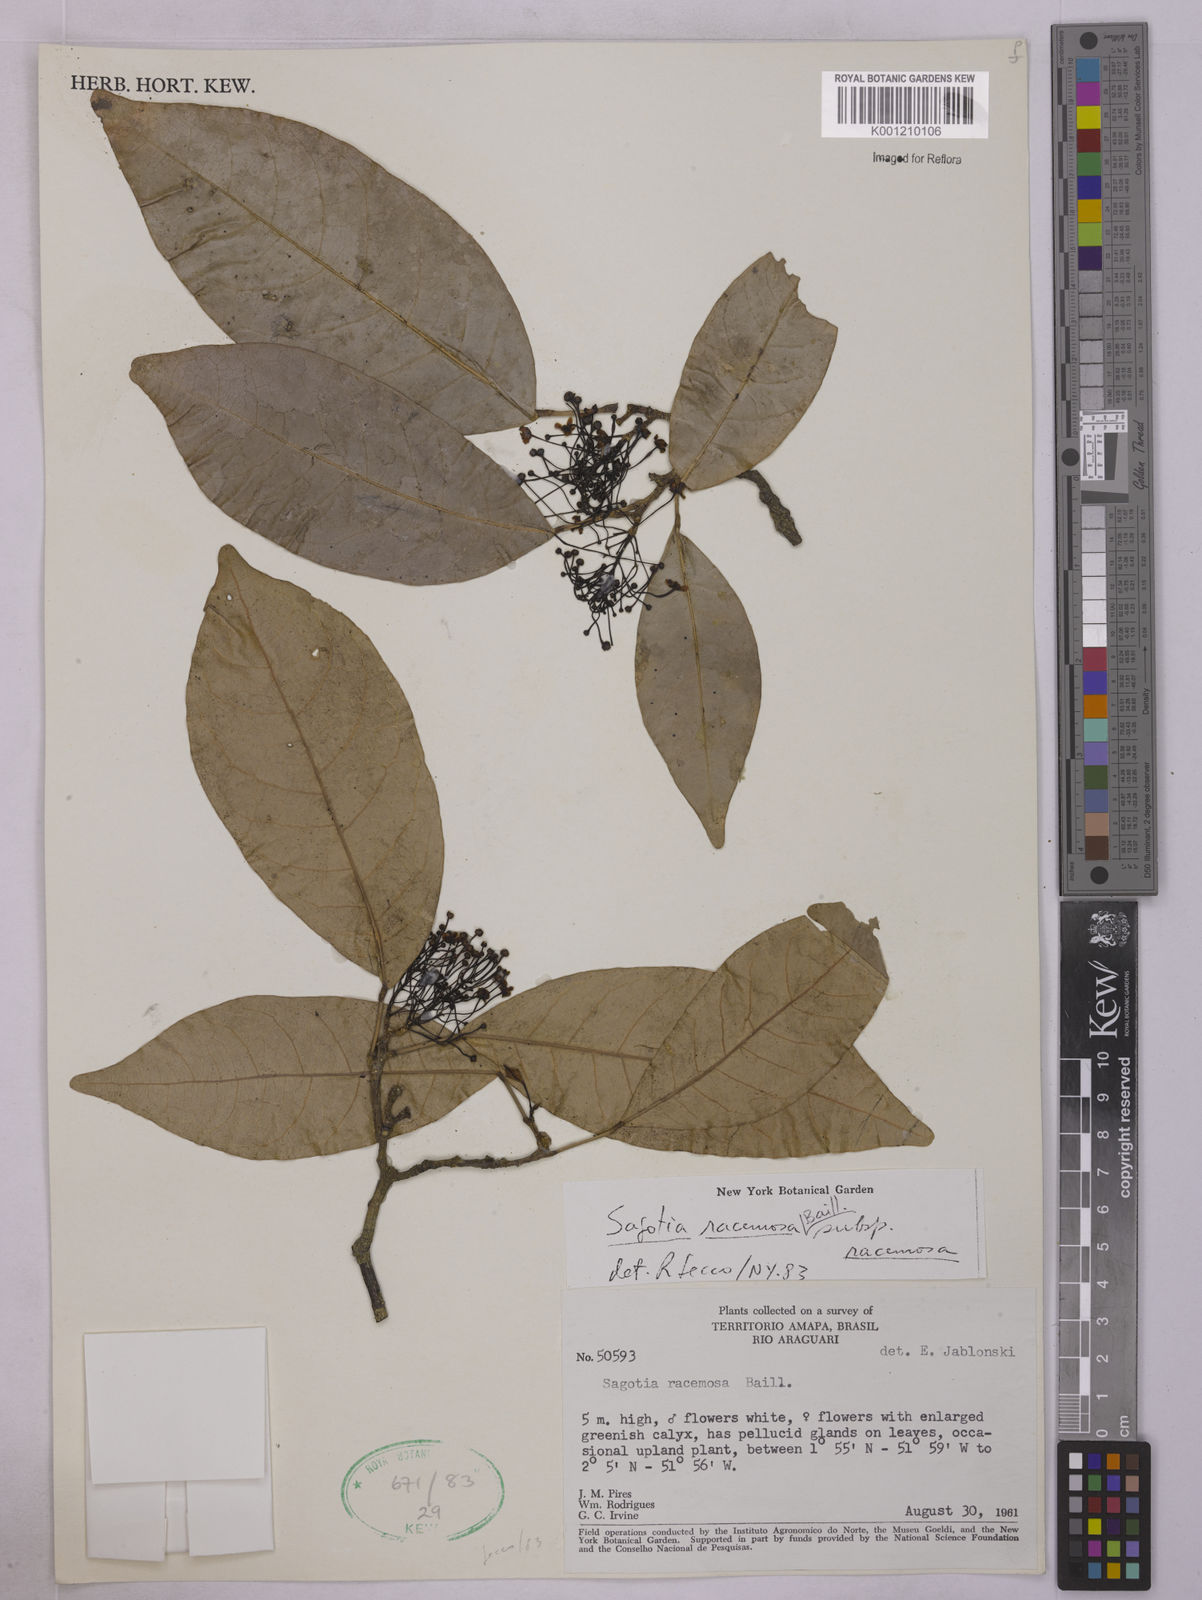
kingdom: Plantae
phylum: Tracheophyta
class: Magnoliopsida
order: Malpighiales
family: Euphorbiaceae
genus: Sagotia
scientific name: Sagotia racemosa
